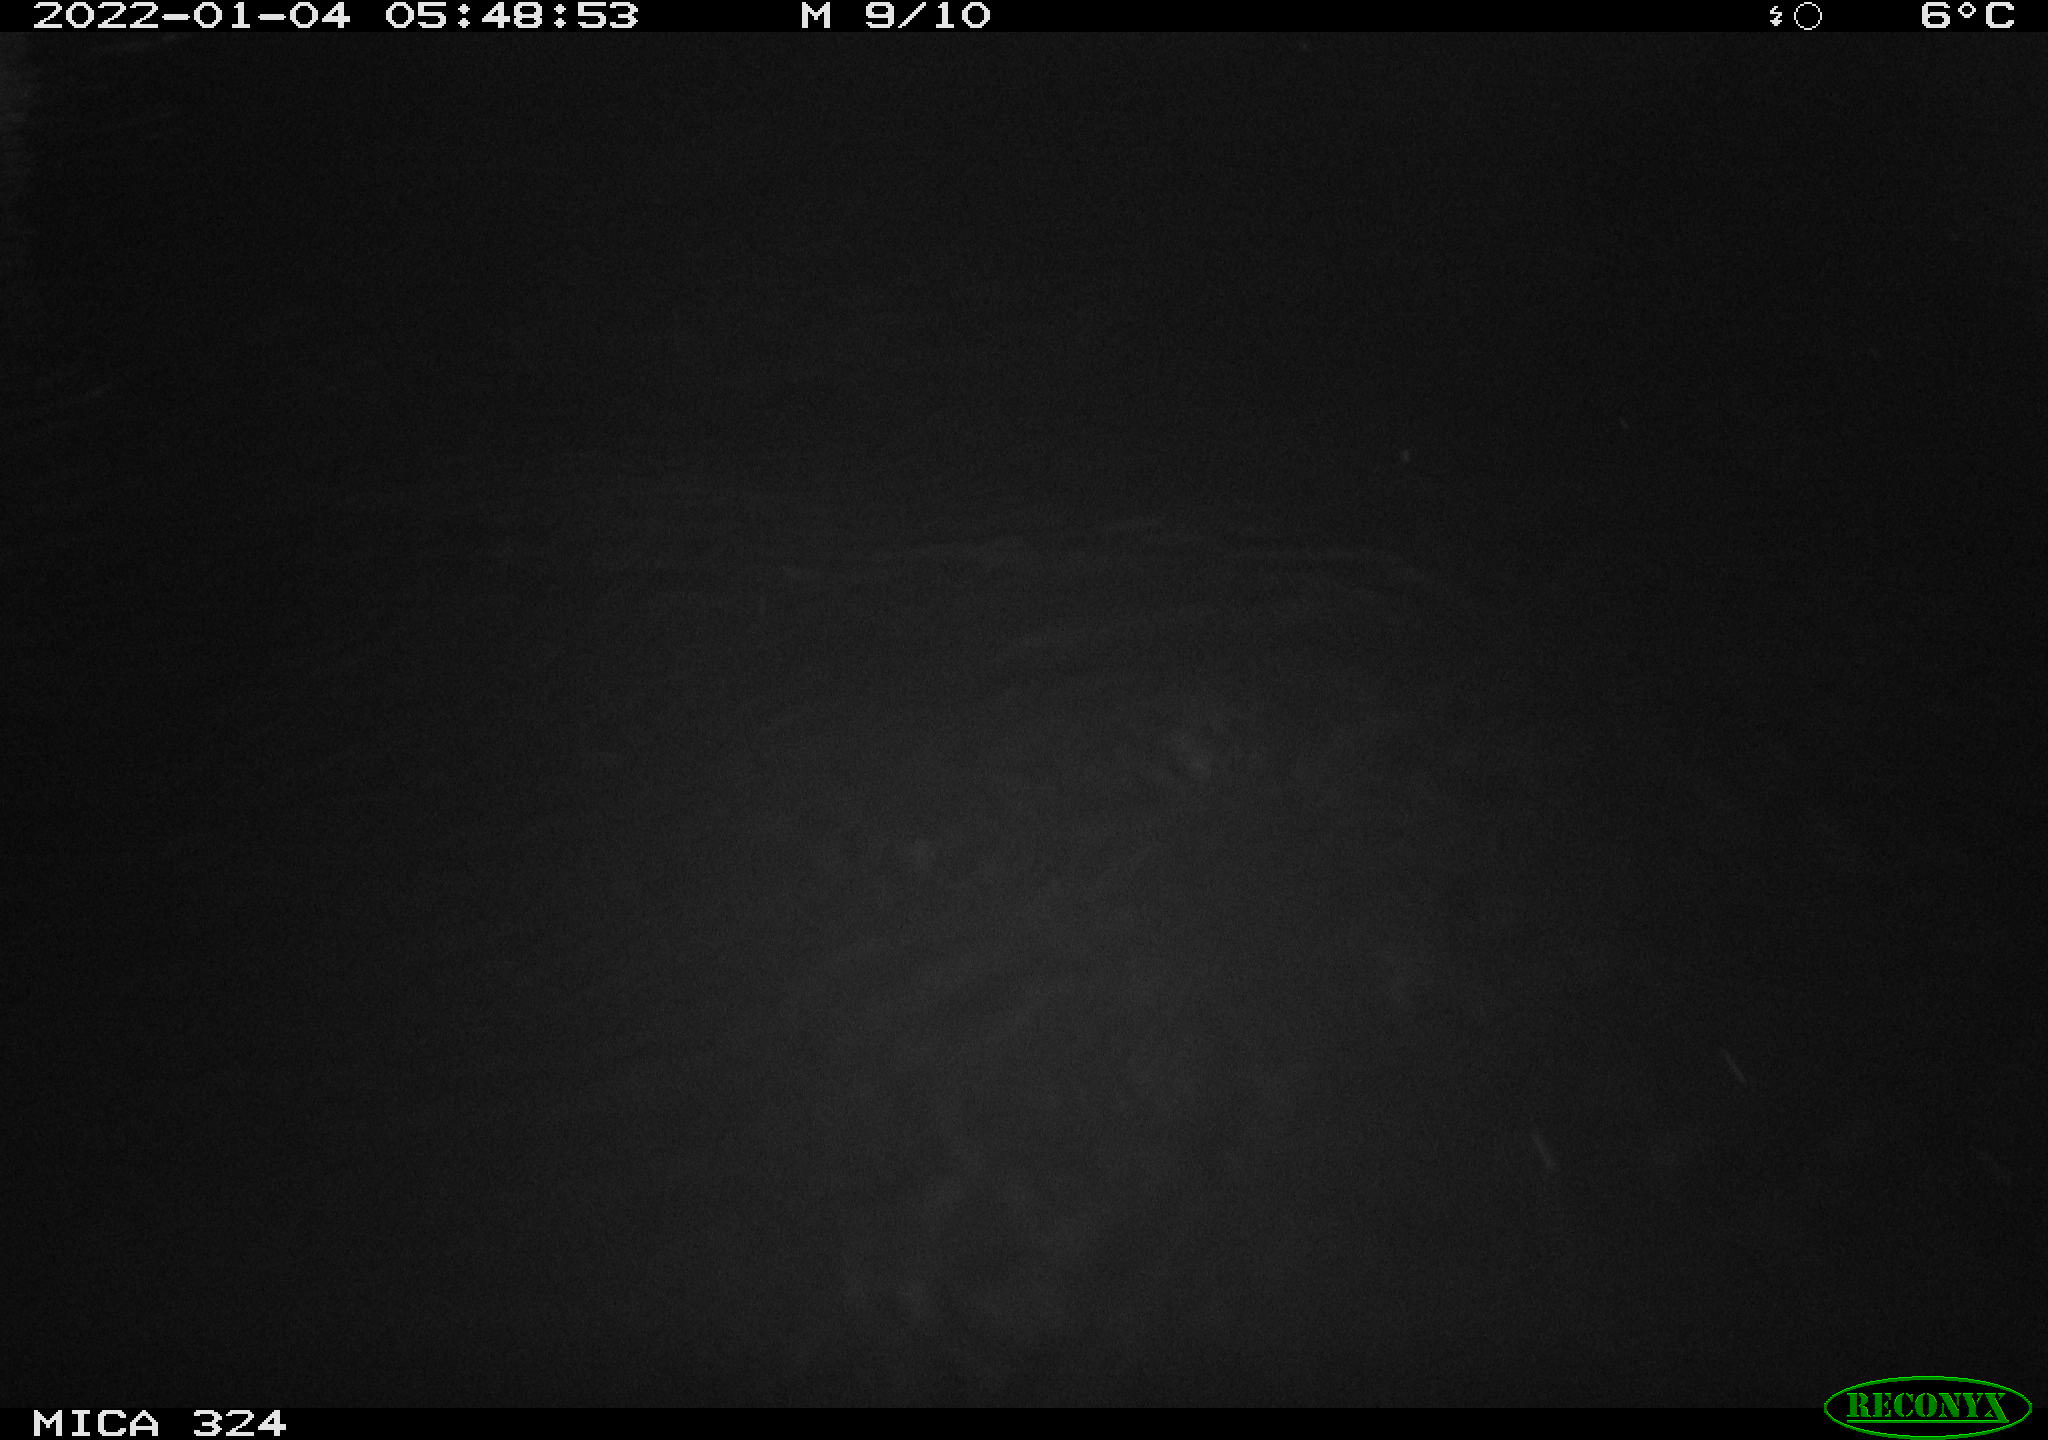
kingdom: Animalia
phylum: Chordata
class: Mammalia
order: Rodentia
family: Cricetidae
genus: Ondatra
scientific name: Ondatra zibethicus
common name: Muskrat
